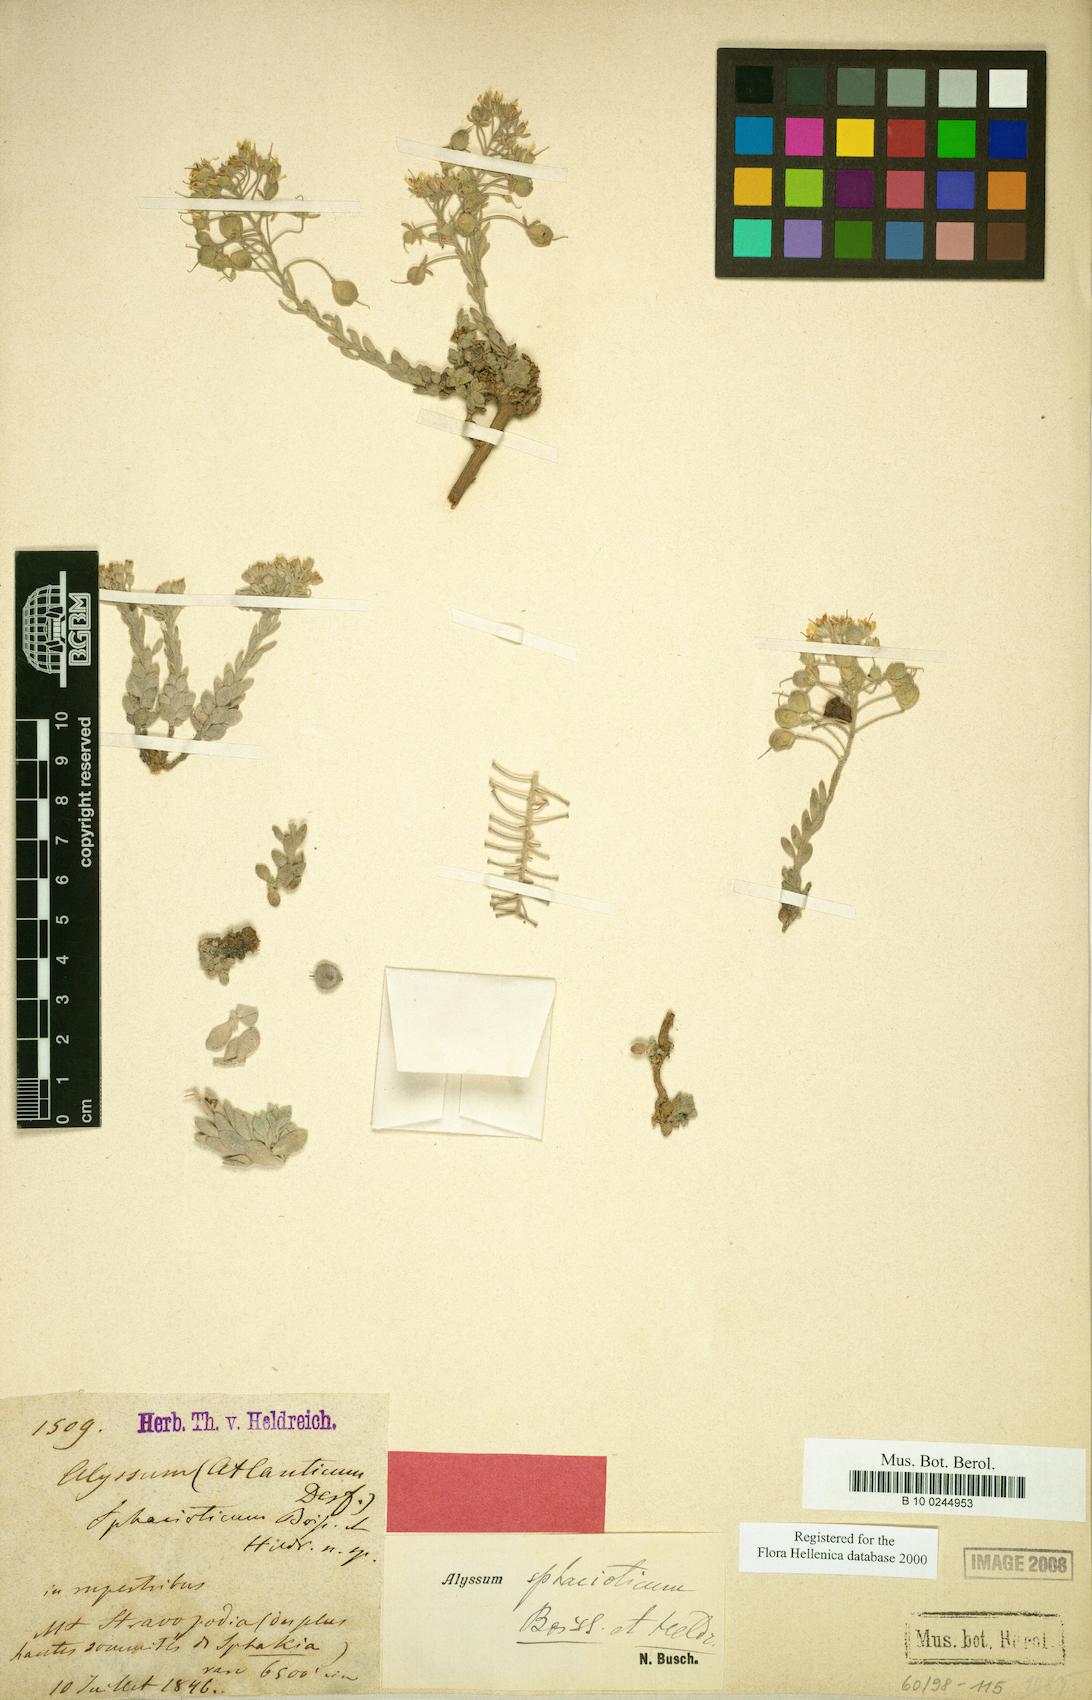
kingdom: Plantae
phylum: Tracheophyta
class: Magnoliopsida
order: Brassicales
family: Brassicaceae
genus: Alyssum
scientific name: Alyssum sphacioticum
